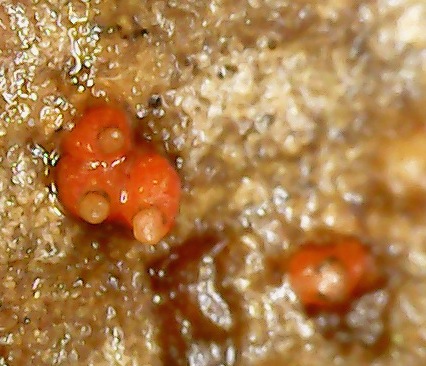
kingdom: Fungi
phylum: Ascomycota
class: Sordariomycetes
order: Hypocreales
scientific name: Hypocreales
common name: kødkerneordenen
